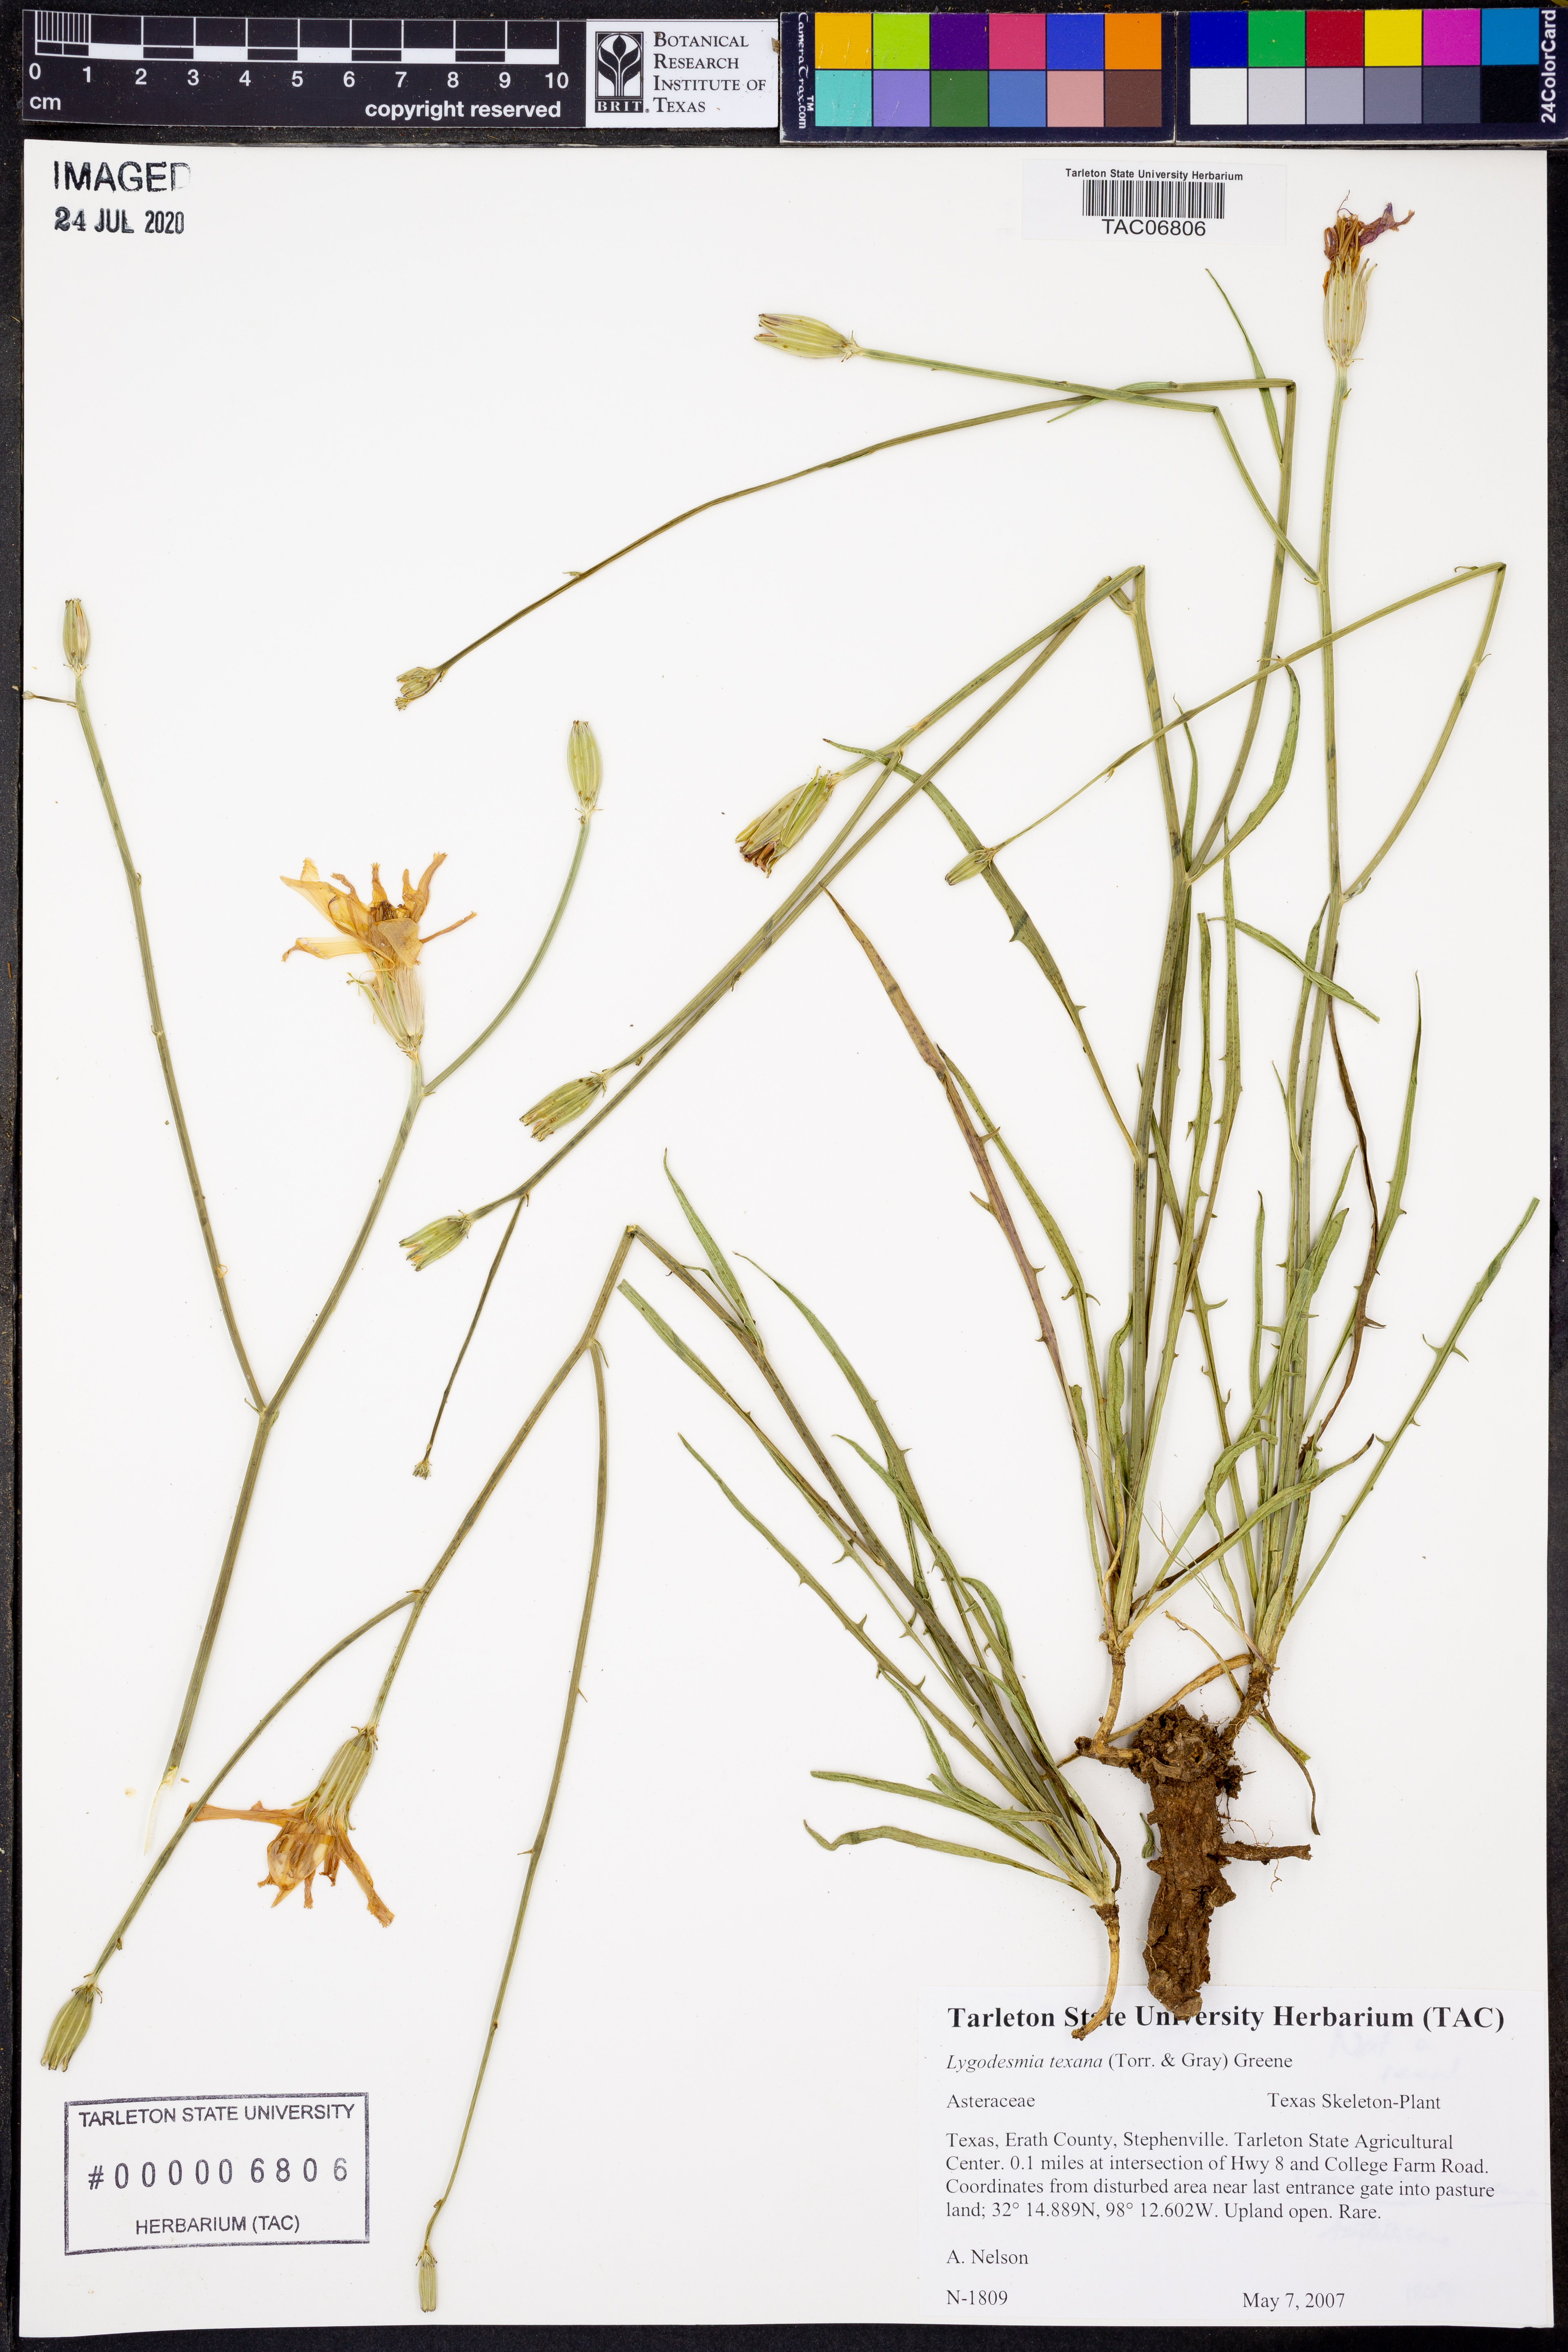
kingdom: Plantae
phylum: Tracheophyta
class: Magnoliopsida
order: Asterales
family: Asteraceae
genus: Lygodesmia
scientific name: Lygodesmia texana
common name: Texas skeleton-plant
